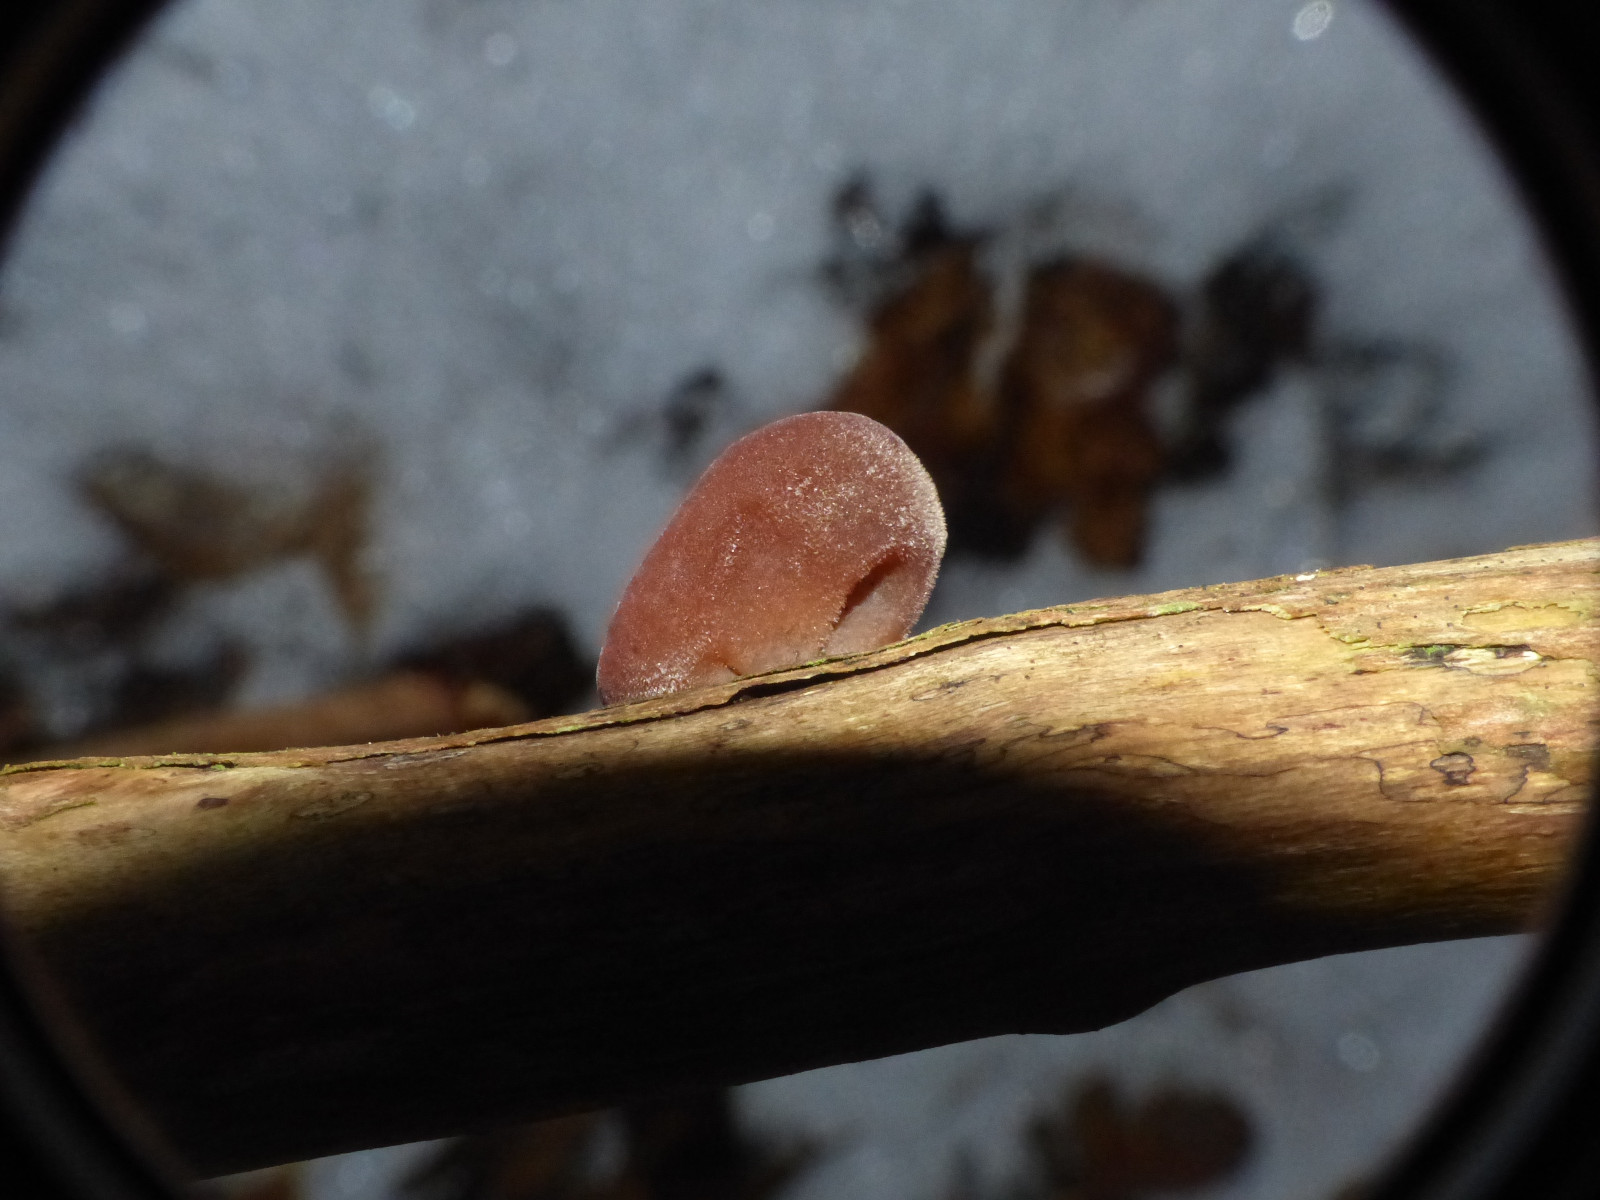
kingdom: Fungi
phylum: Basidiomycota
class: Agaricomycetes
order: Auriculariales
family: Auriculariaceae
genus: Auricularia
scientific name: Auricularia auricula-judae
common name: almindelig judasøre
